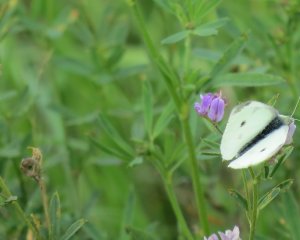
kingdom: Animalia
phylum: Arthropoda
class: Insecta
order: Lepidoptera
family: Pieridae
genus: Pieris
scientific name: Pieris rapae
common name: Cabbage White
